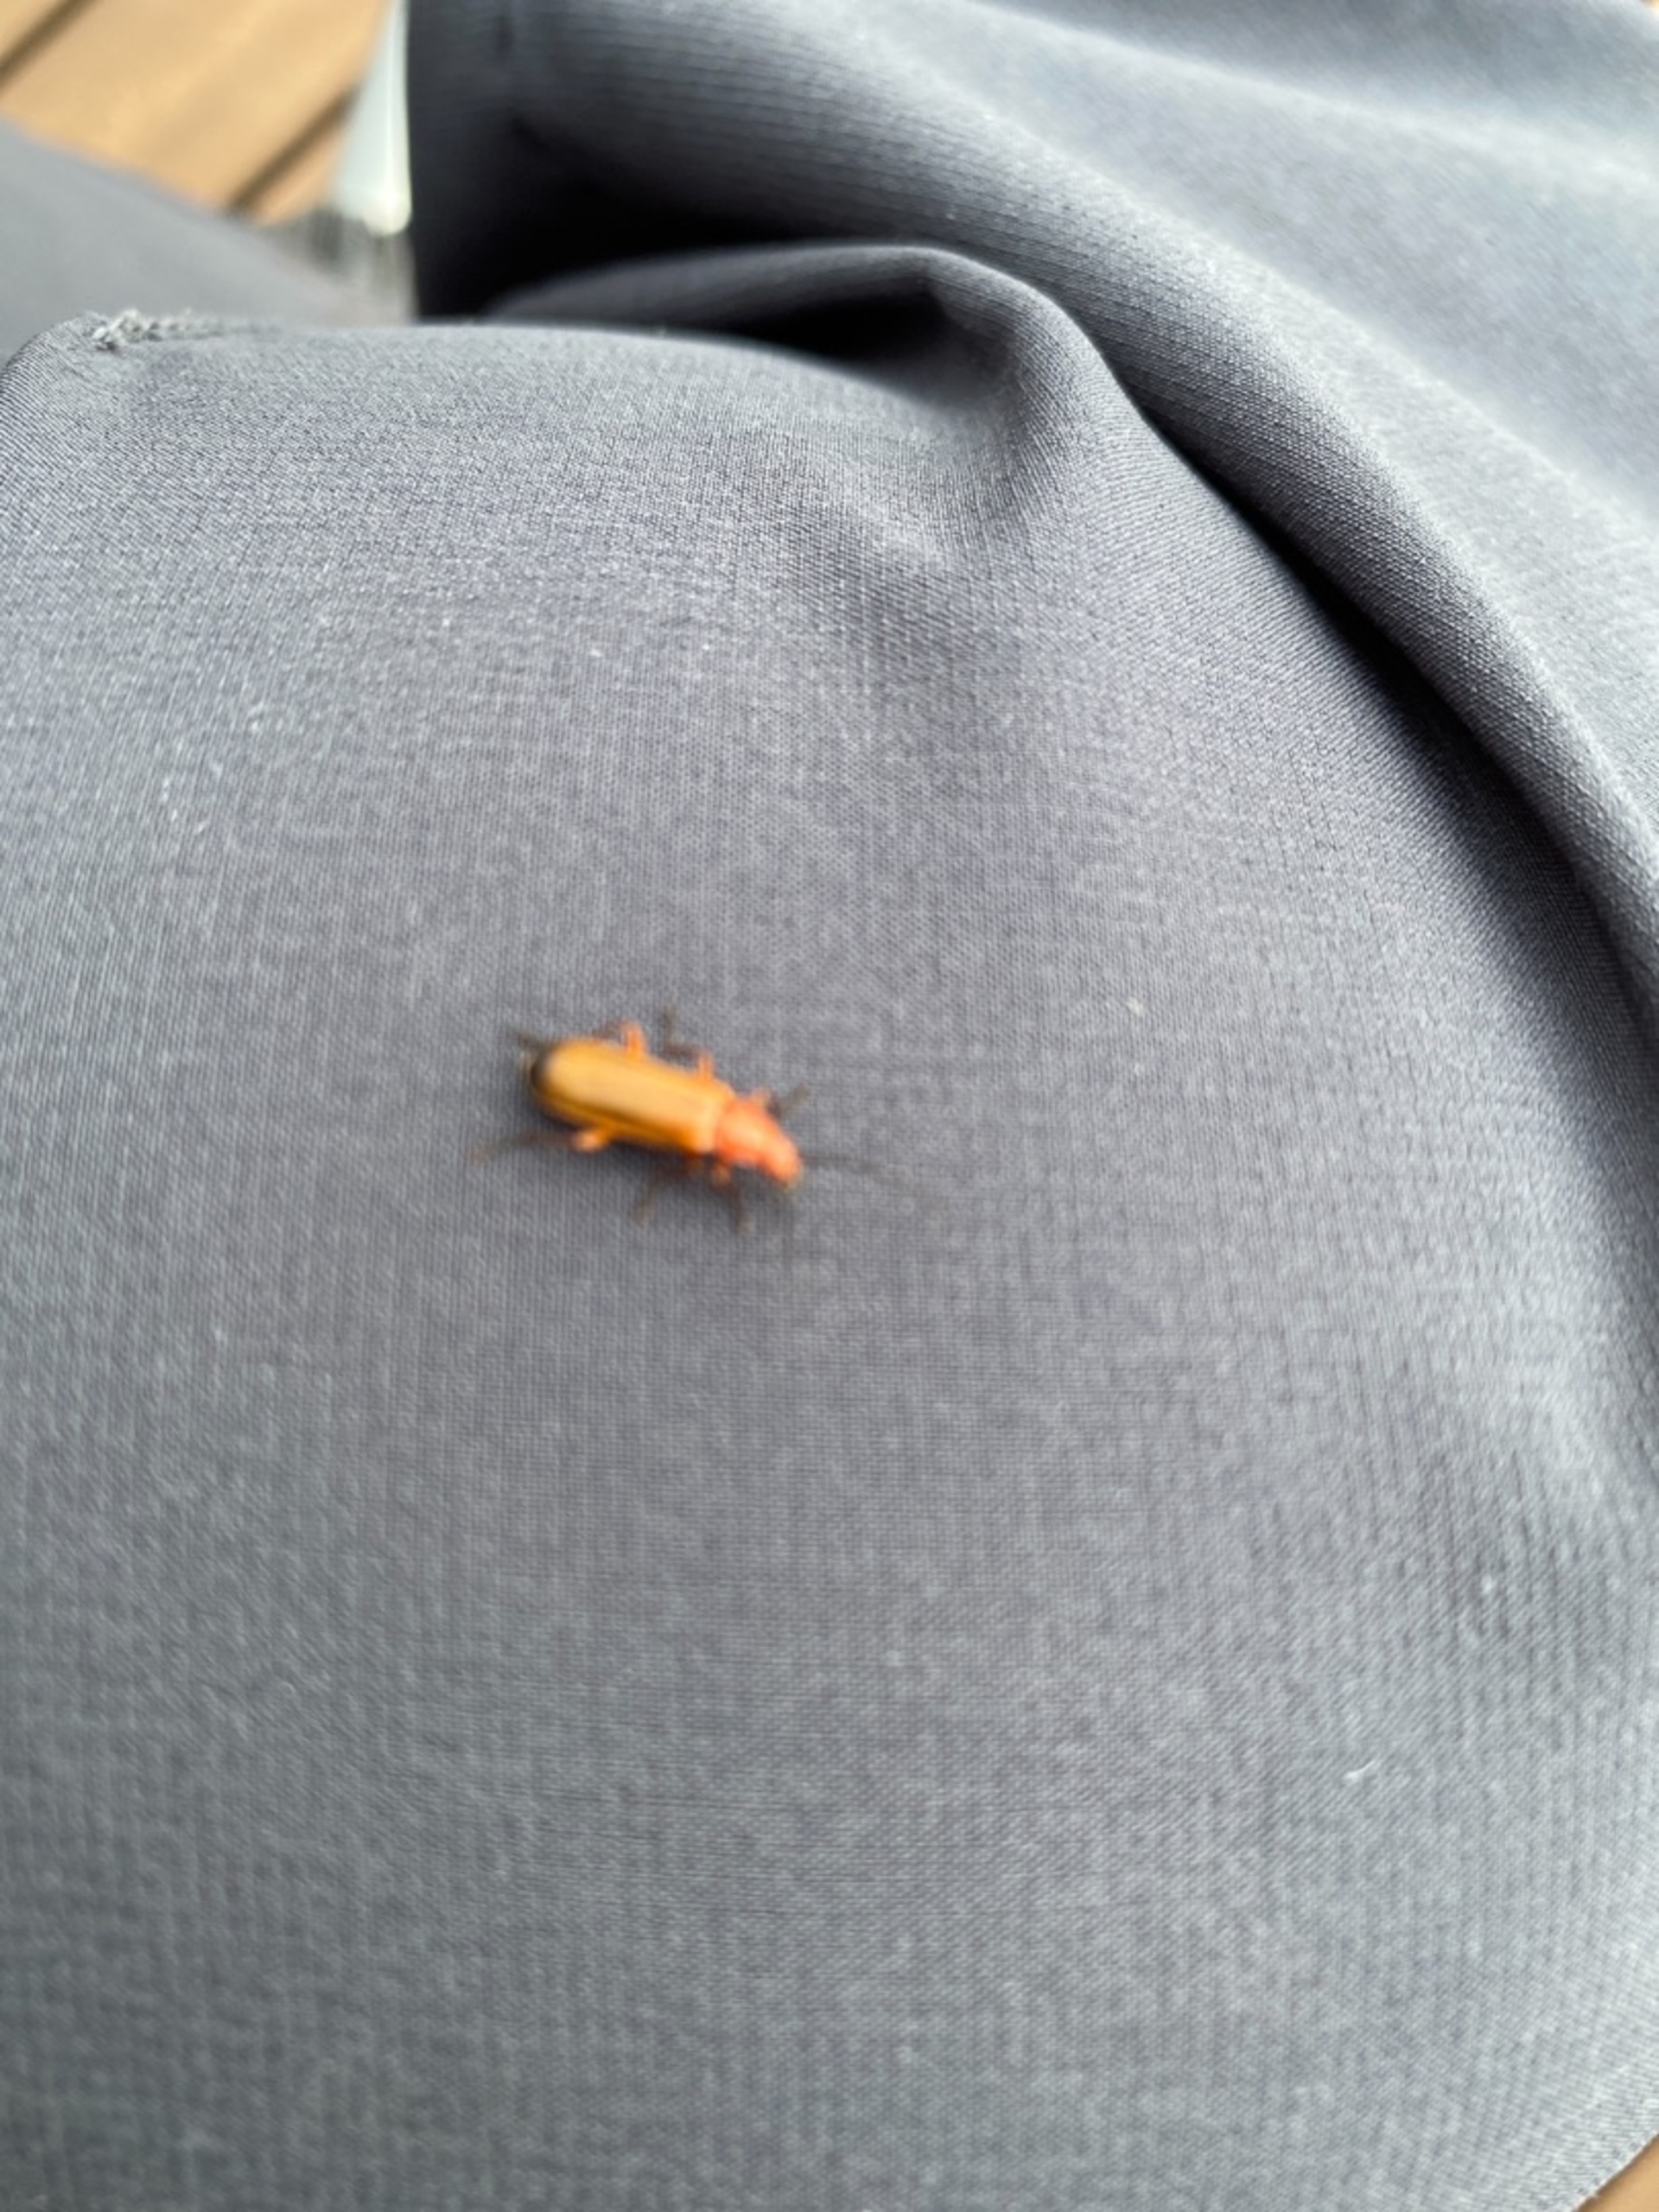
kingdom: Animalia
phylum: Arthropoda
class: Insecta
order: Coleoptera
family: Cantharidae
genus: Rhagonycha
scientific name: Rhagonycha fulva
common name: Præstebille
